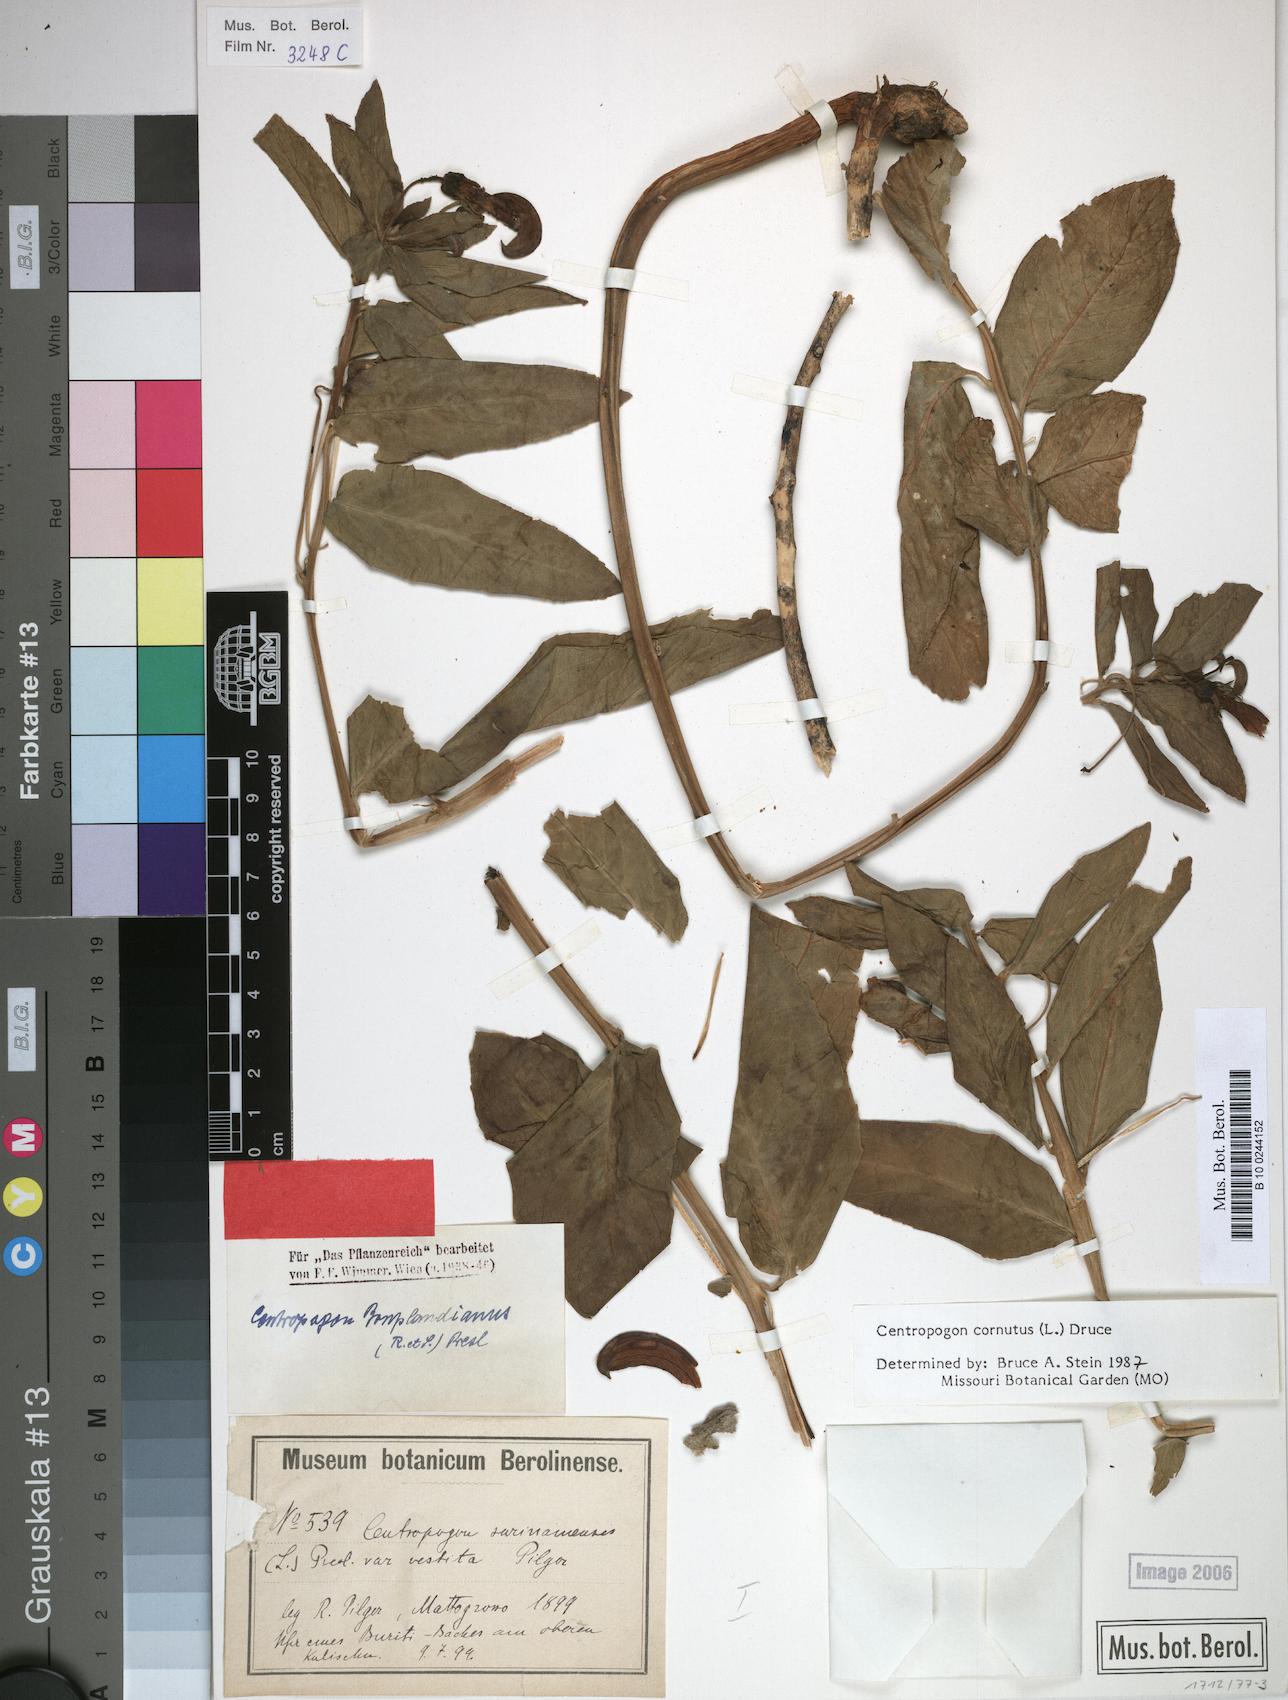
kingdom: Plantae
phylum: Tracheophyta
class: Magnoliopsida
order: Asterales
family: Campanulaceae
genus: Centropogon
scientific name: Centropogon cornutus
